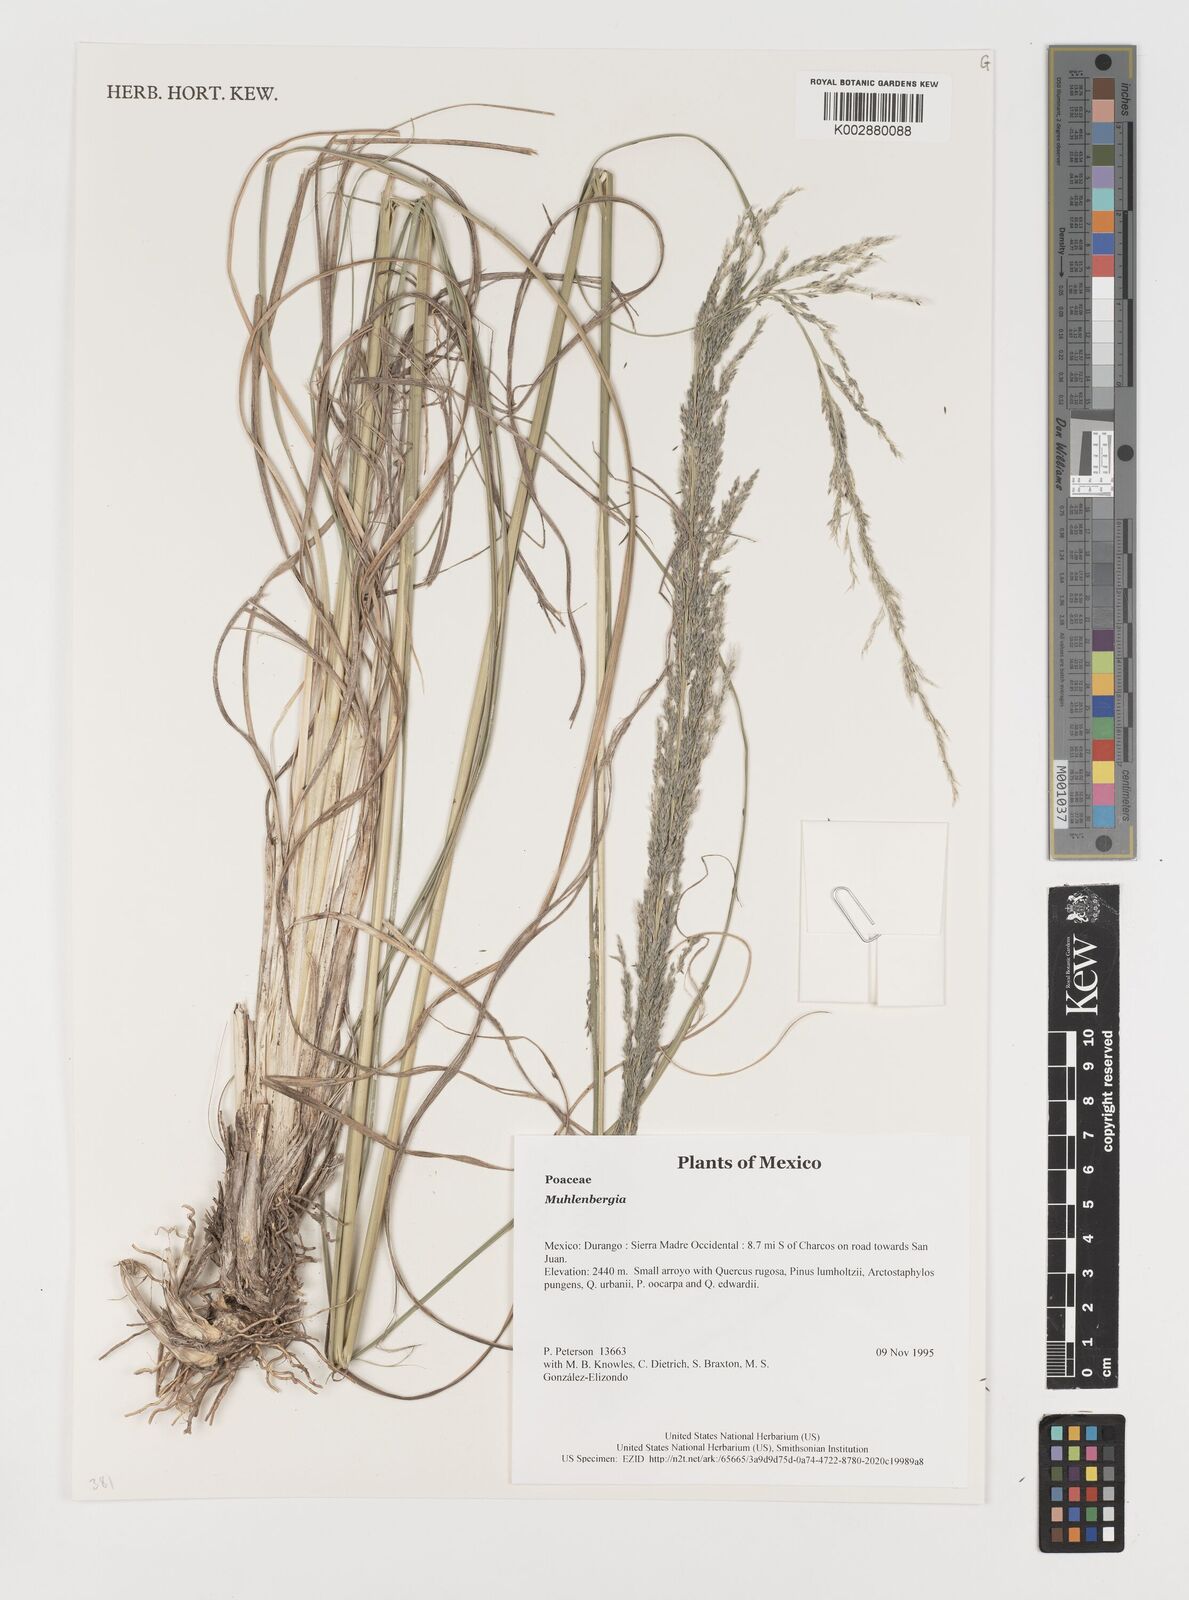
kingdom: Plantae
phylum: Tracheophyta
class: Liliopsida
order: Poales
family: Poaceae
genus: Muhlenbergia
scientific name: Muhlenbergia
